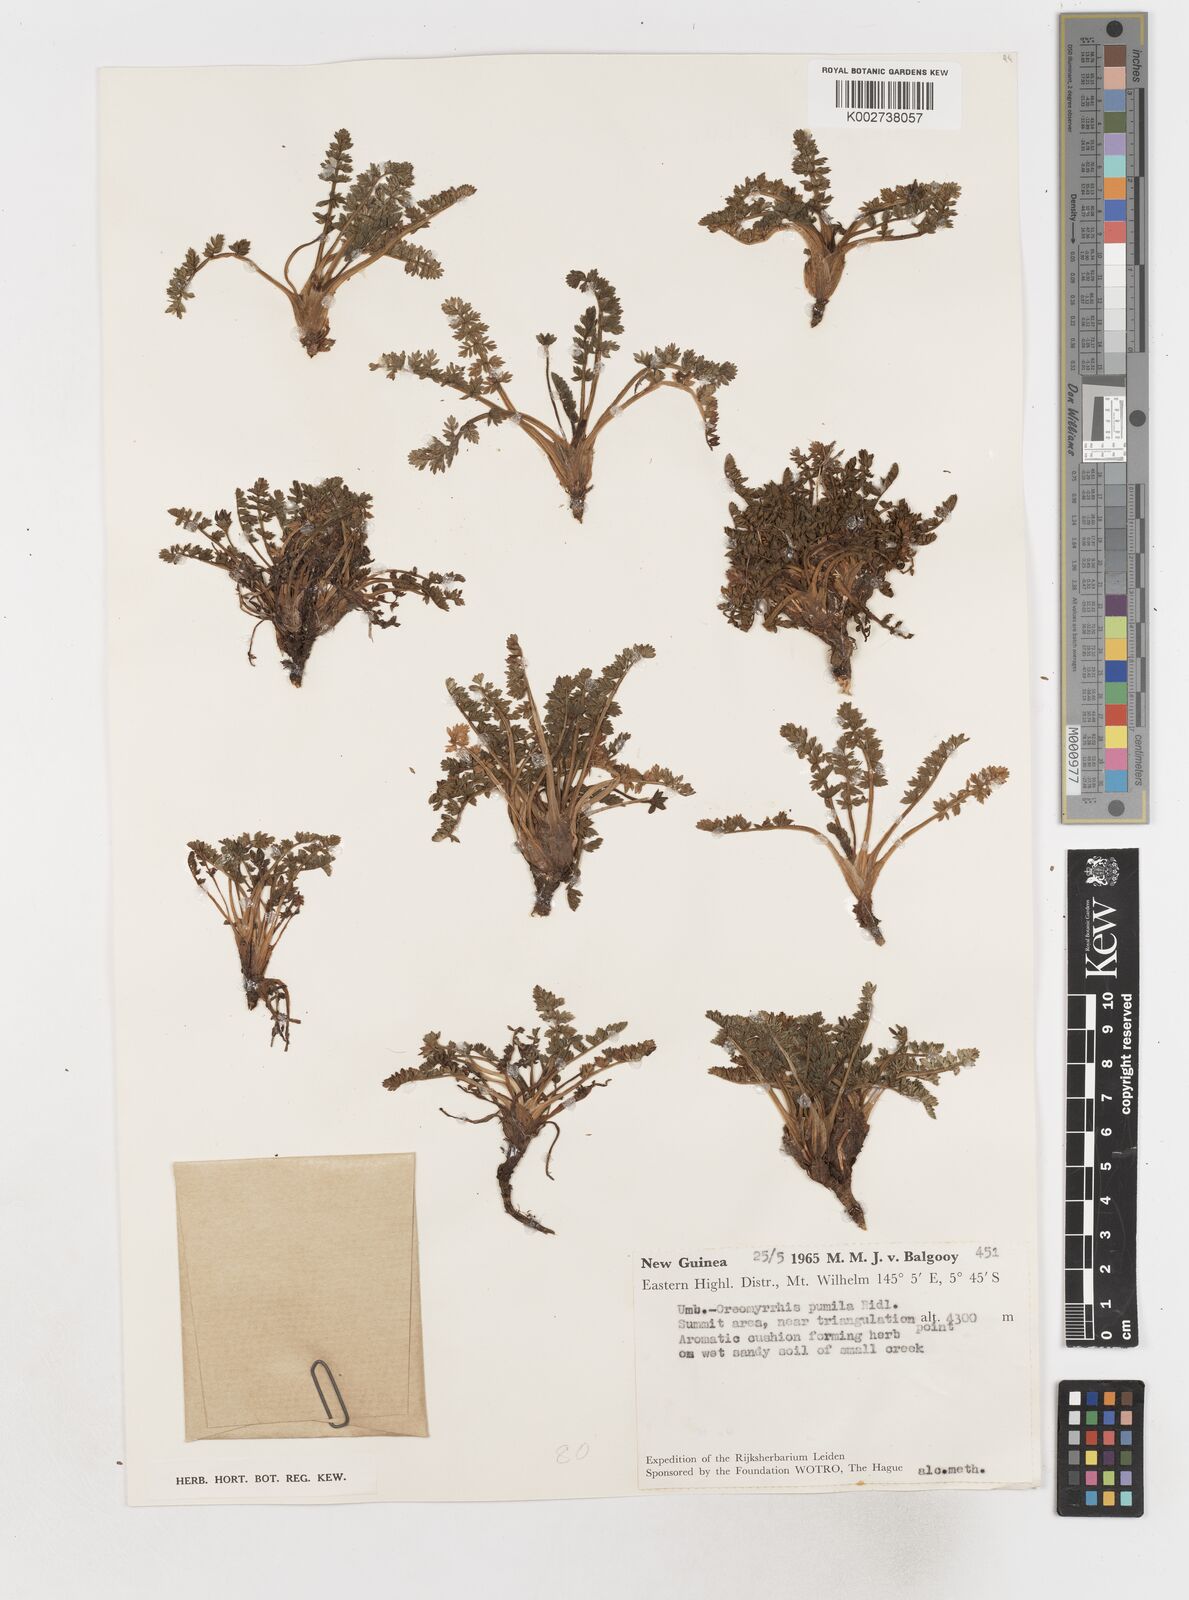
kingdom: Plantae
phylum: Tracheophyta
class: Magnoliopsida
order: Apiales
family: Apiaceae
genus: Chaerophyllum
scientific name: Chaerophyllum pumilum
